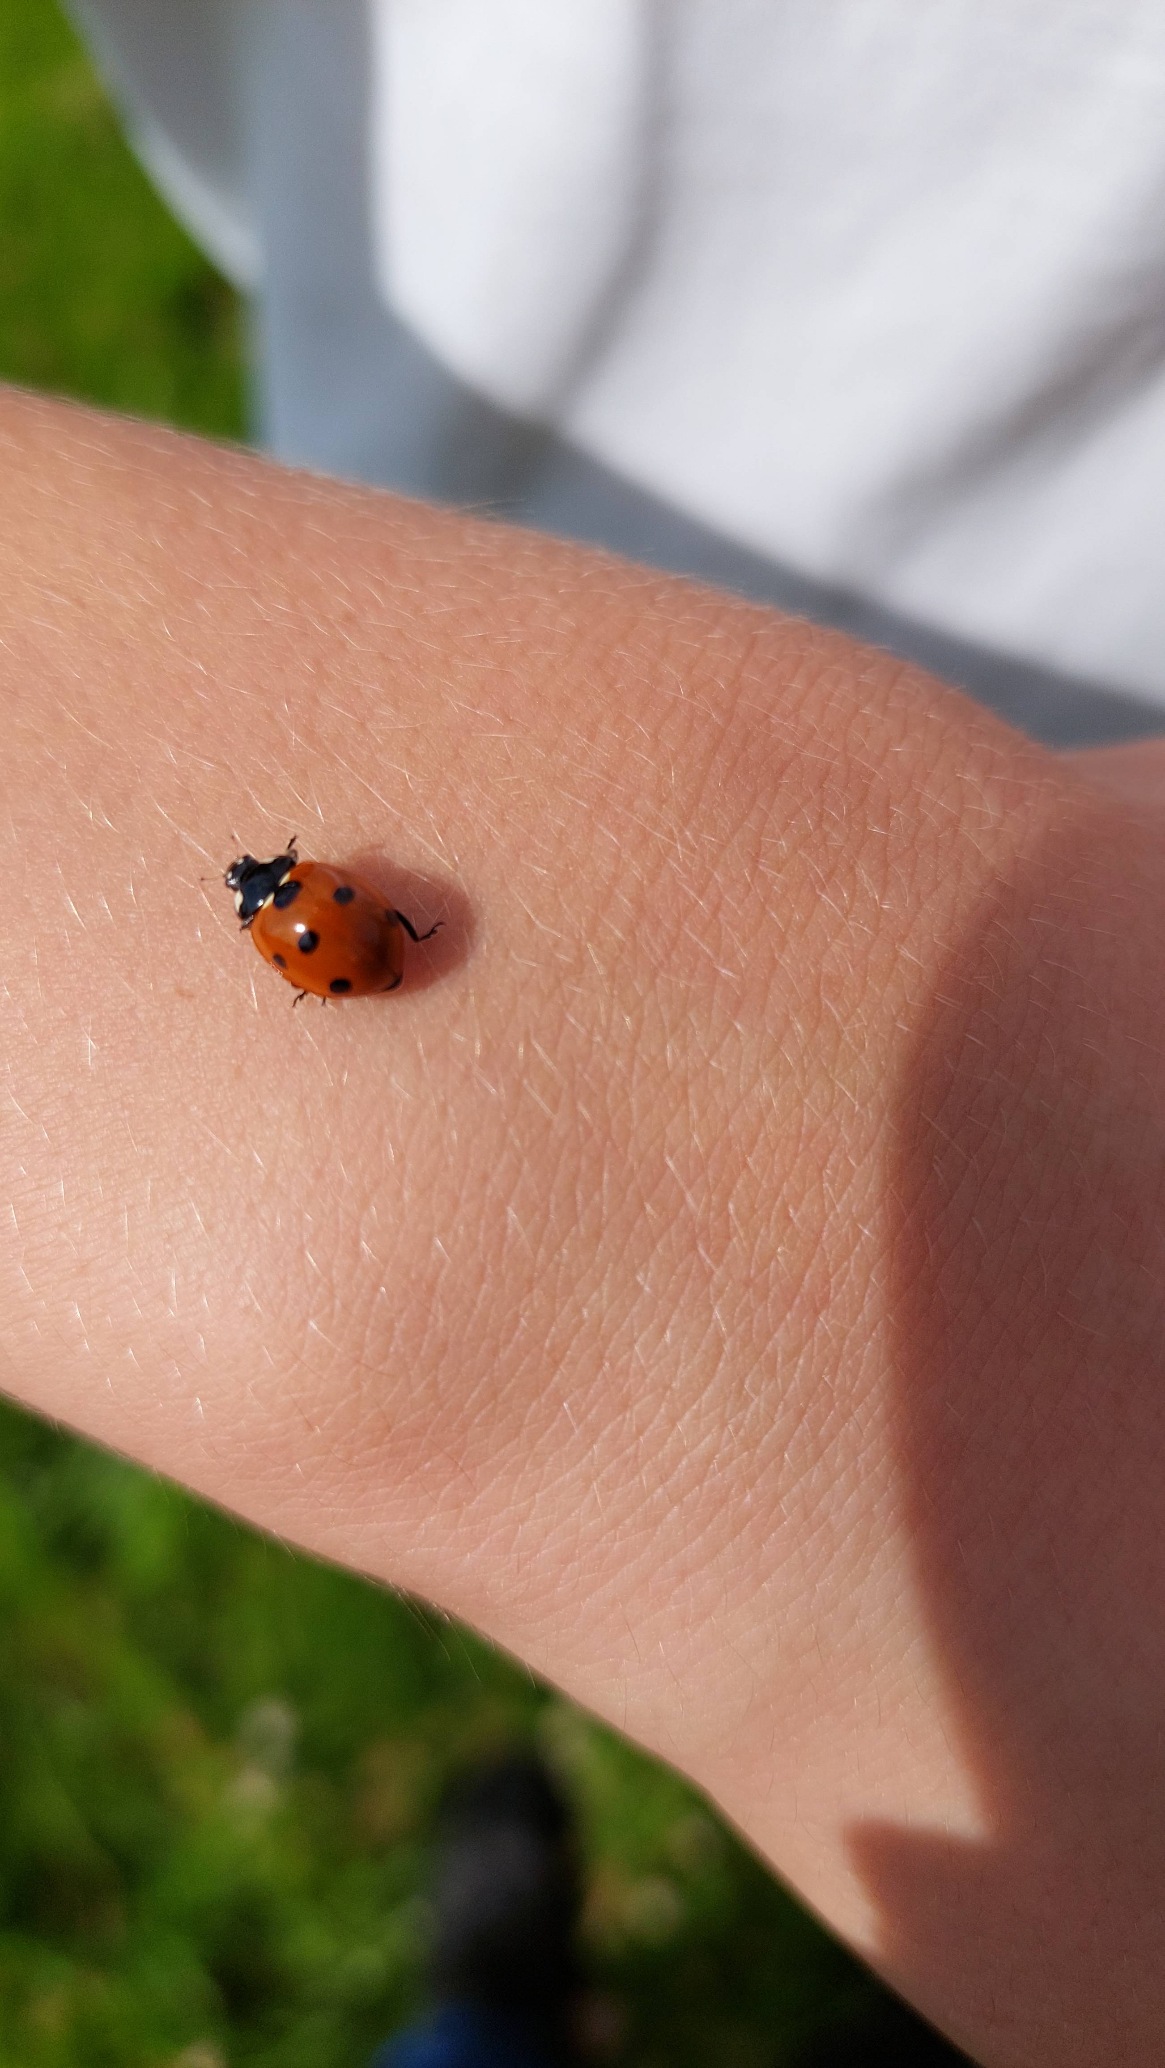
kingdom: Animalia
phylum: Arthropoda
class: Insecta
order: Coleoptera
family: Coccinellidae
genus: Coccinella
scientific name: Coccinella septempunctata
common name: Syvplettet mariehøne
